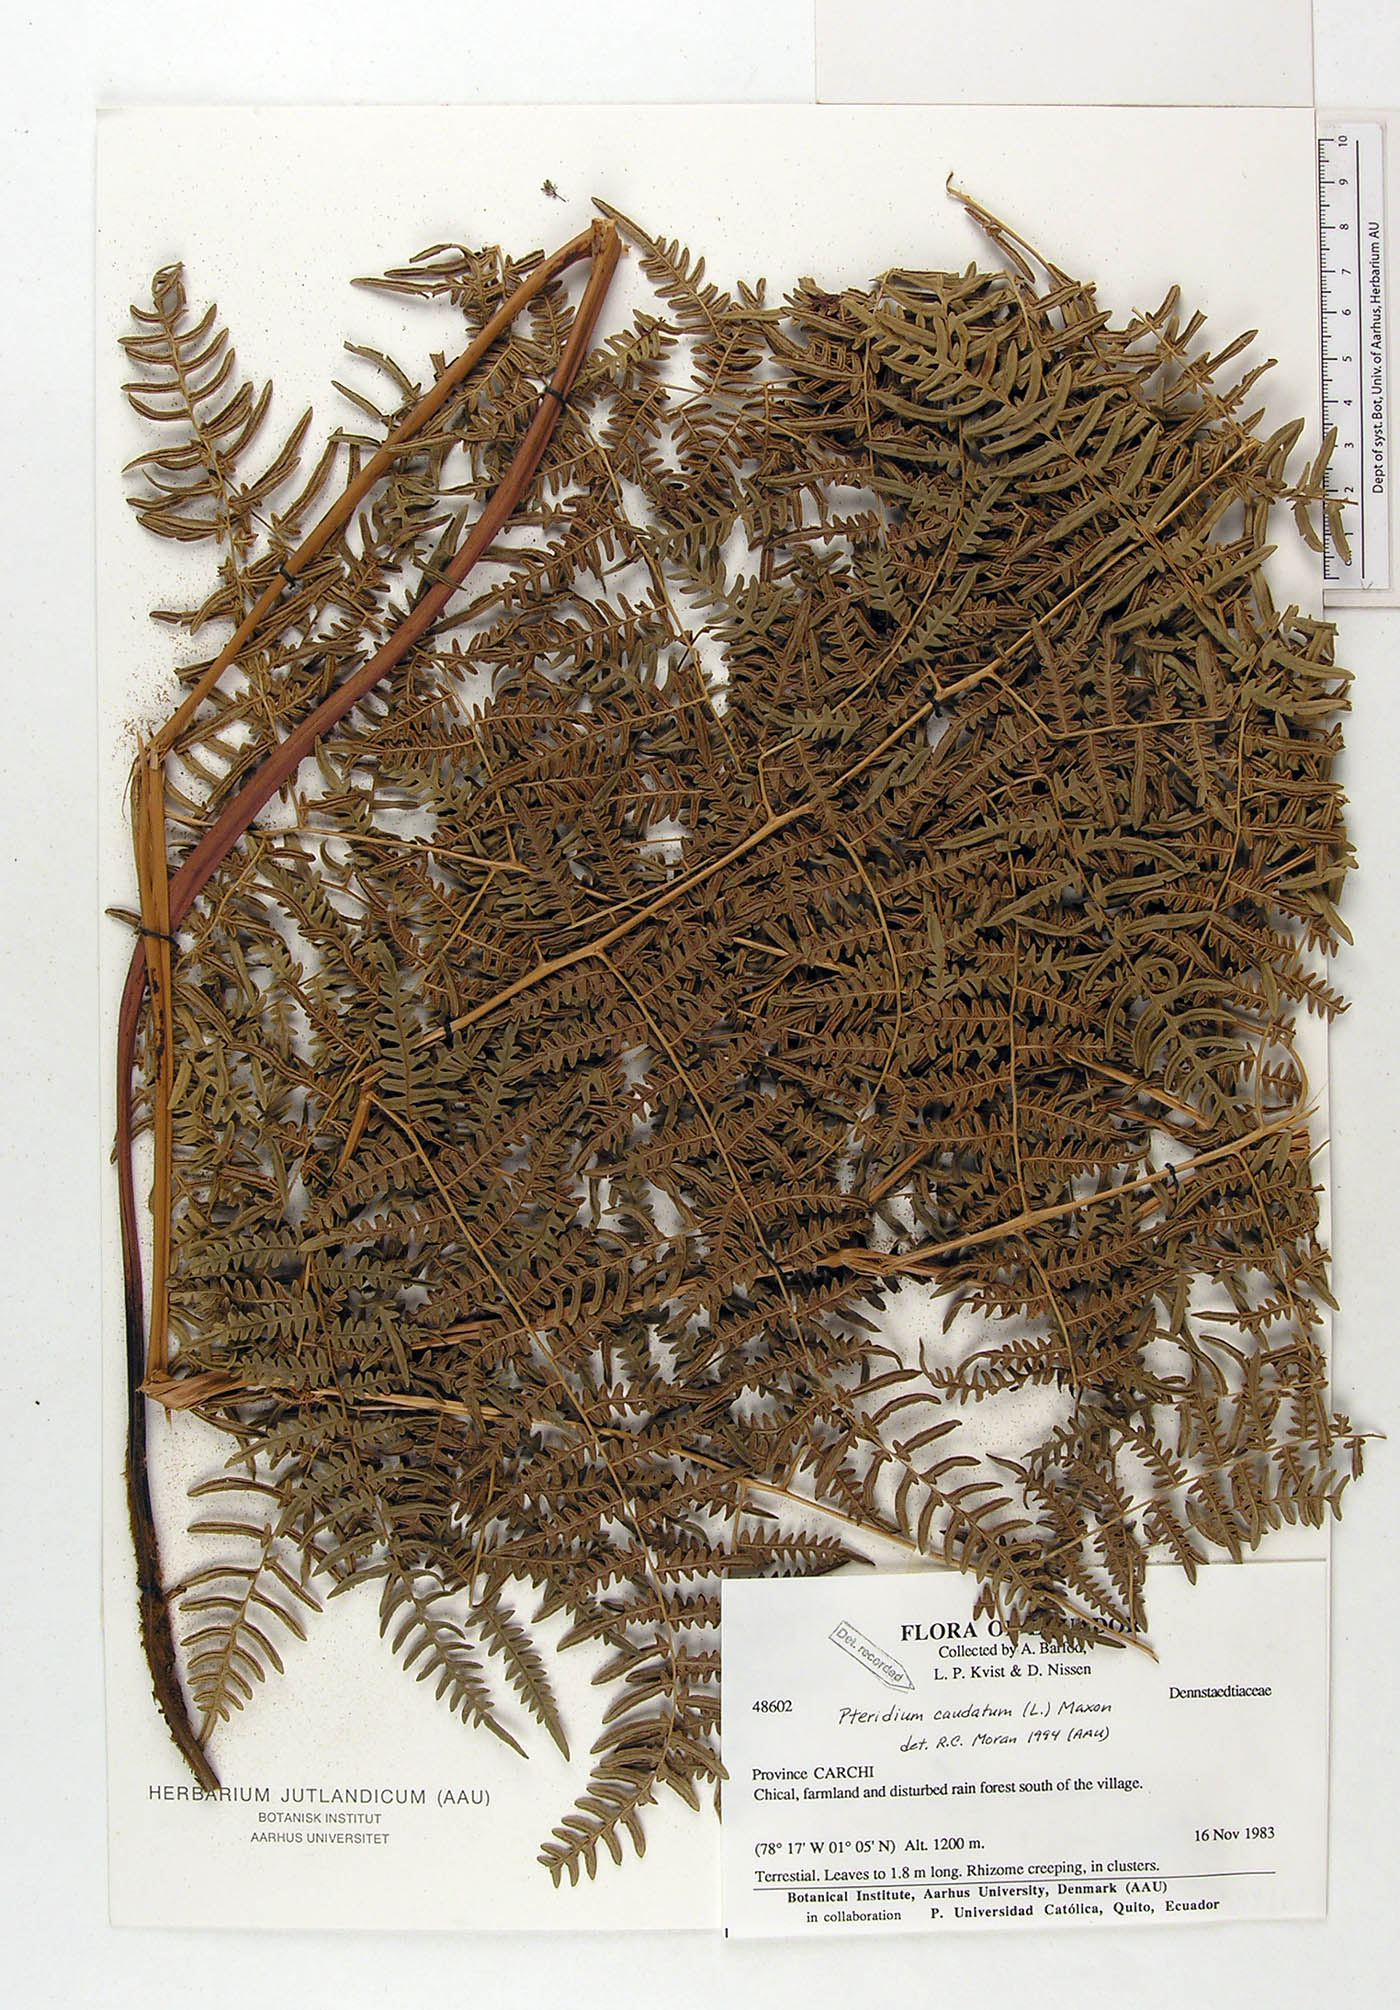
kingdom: Plantae
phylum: Tracheophyta
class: Polypodiopsida
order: Polypodiales
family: Dennstaedtiaceae
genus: Pteridium
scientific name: Pteridium caudatum
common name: Southern bracken fern
